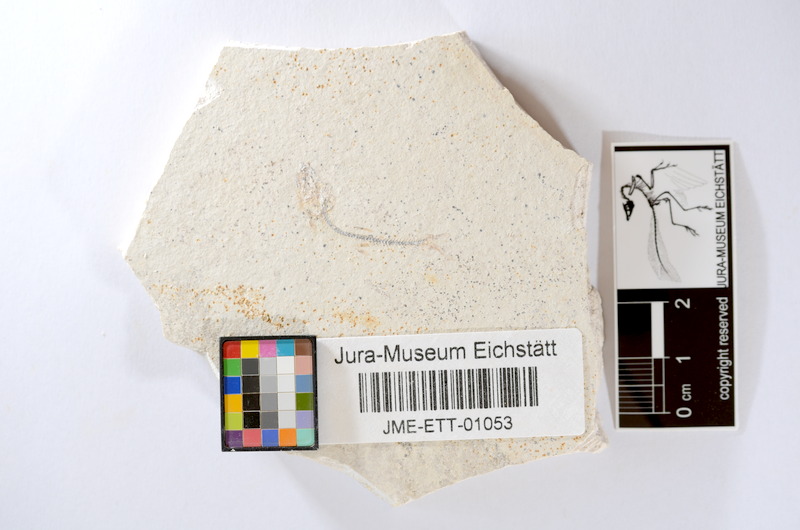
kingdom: Animalia
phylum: Chordata
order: Salmoniformes
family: Orthogonikleithridae
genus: Orthogonikleithrus
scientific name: Orthogonikleithrus hoelli
